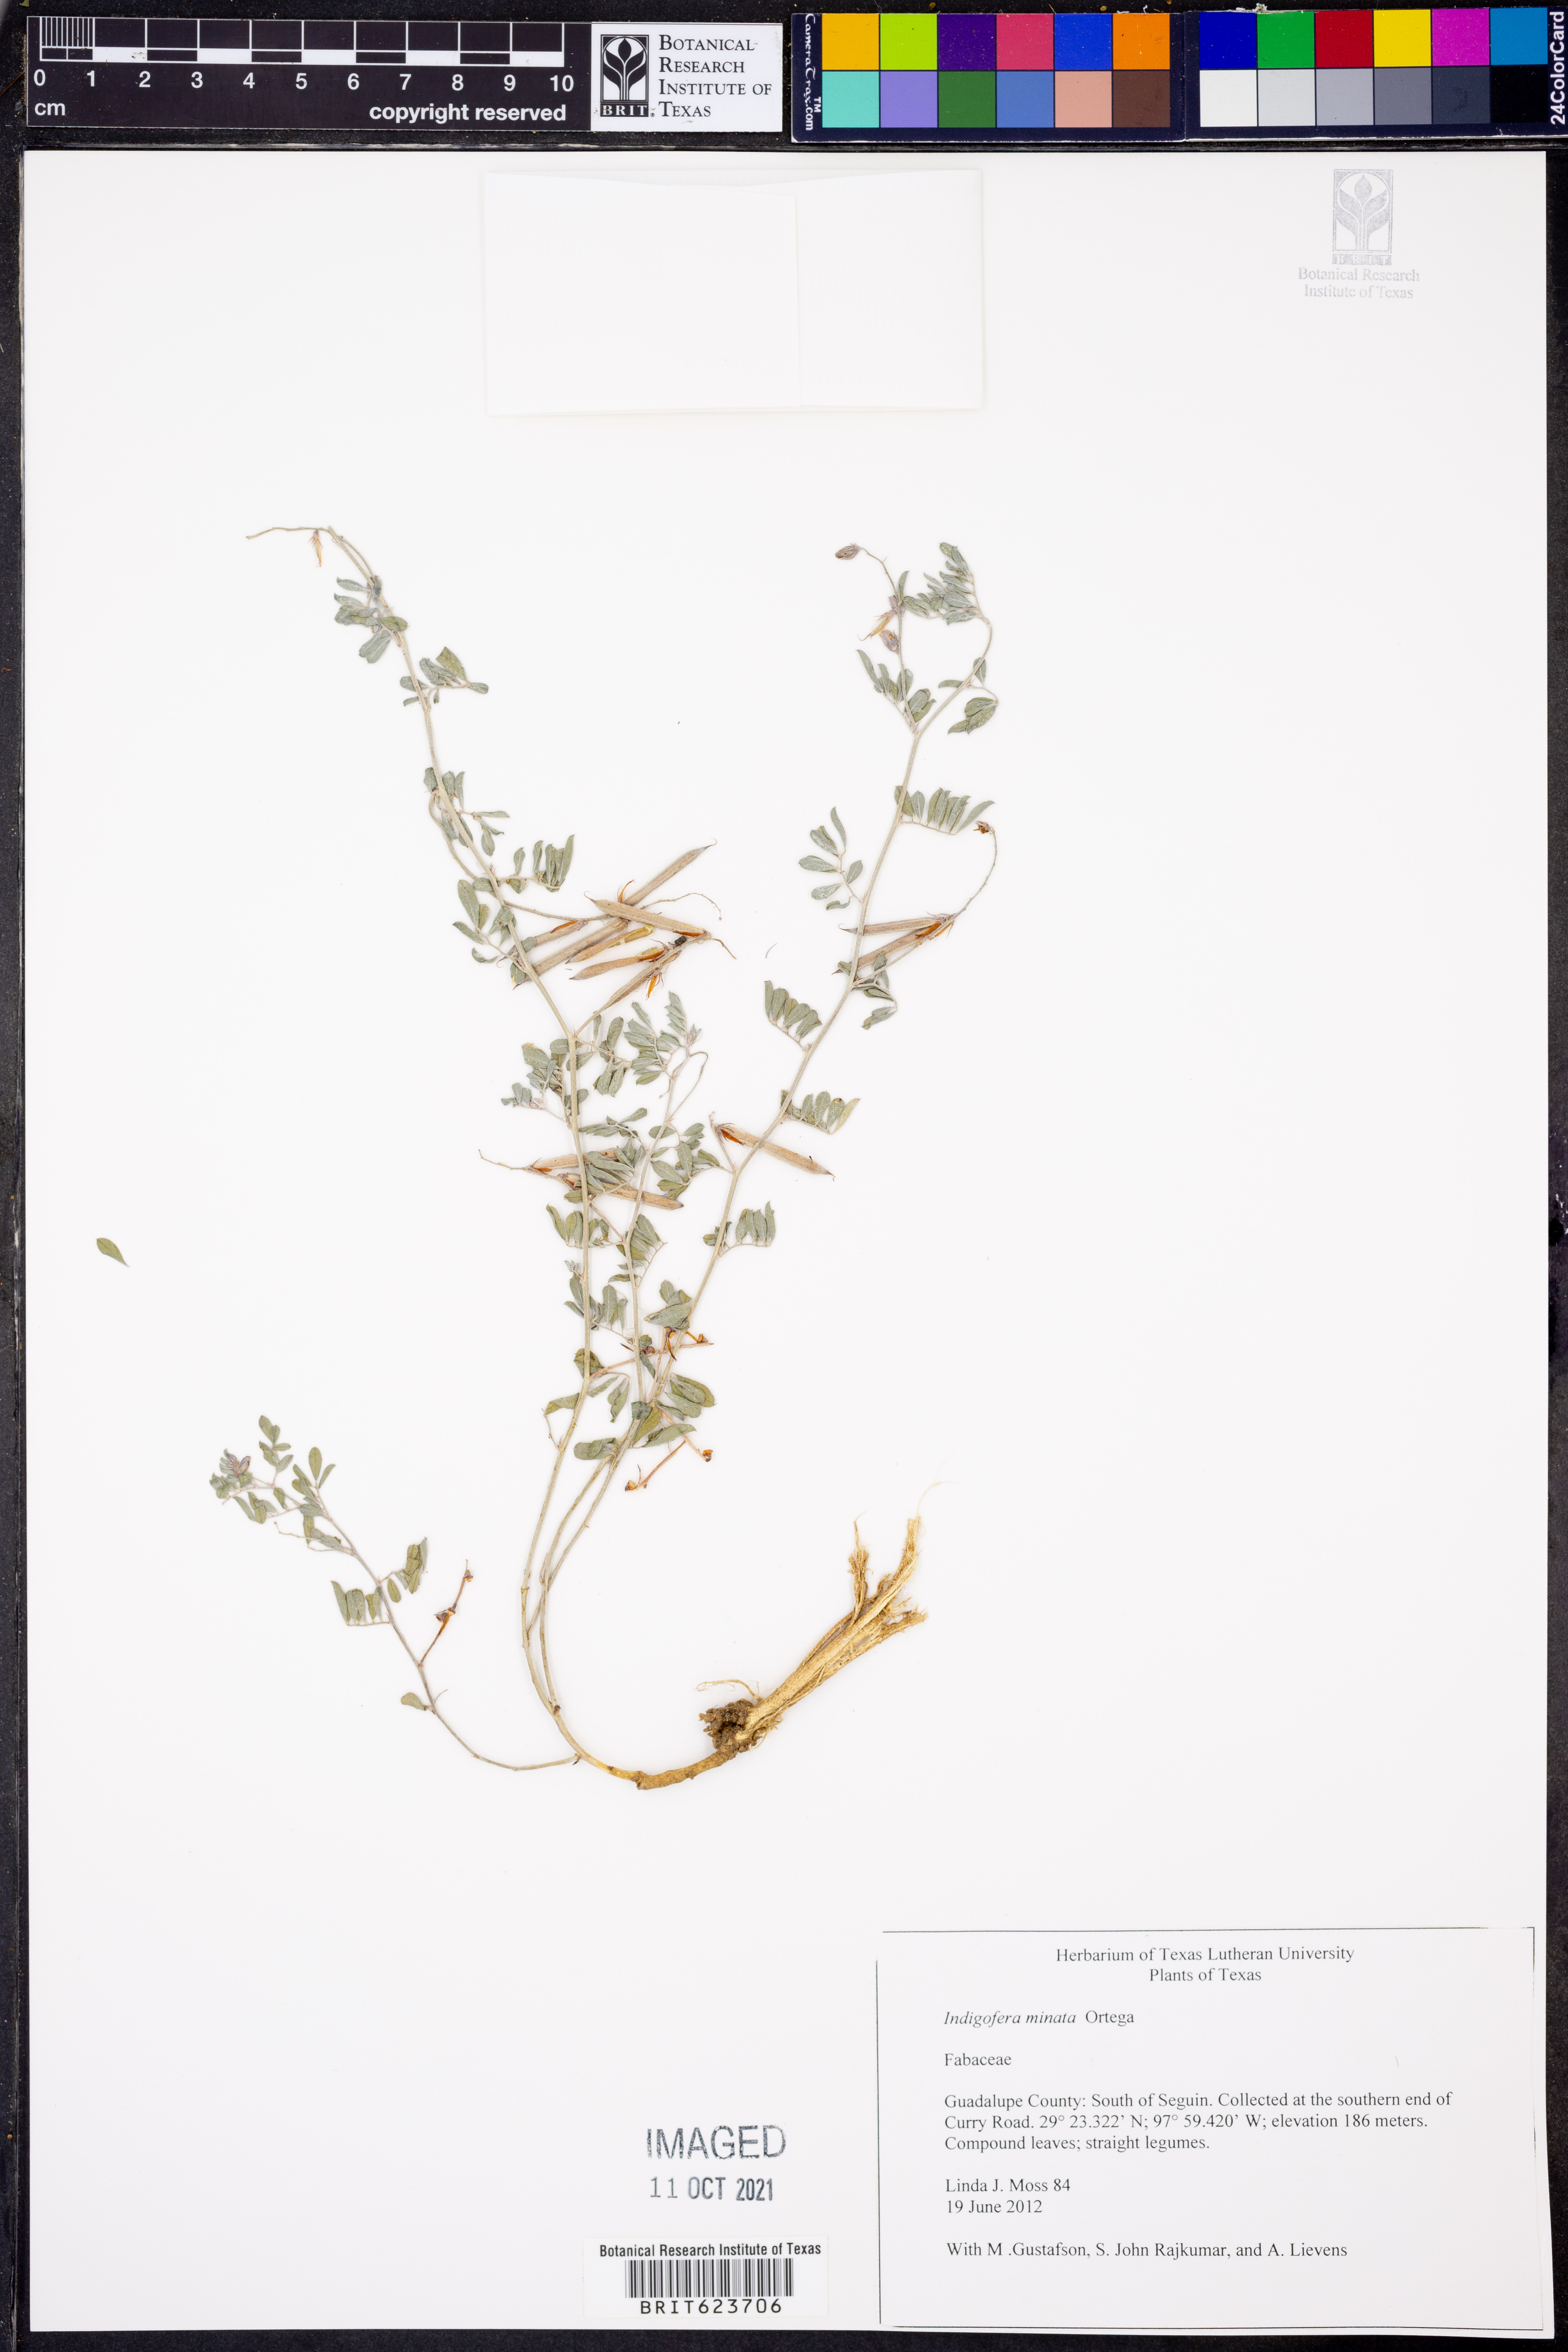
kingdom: Plantae
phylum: Tracheophyta
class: Magnoliopsida
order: Fabales
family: Fabaceae
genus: Indigofera
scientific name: Indigofera miniata
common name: Coast indigo
